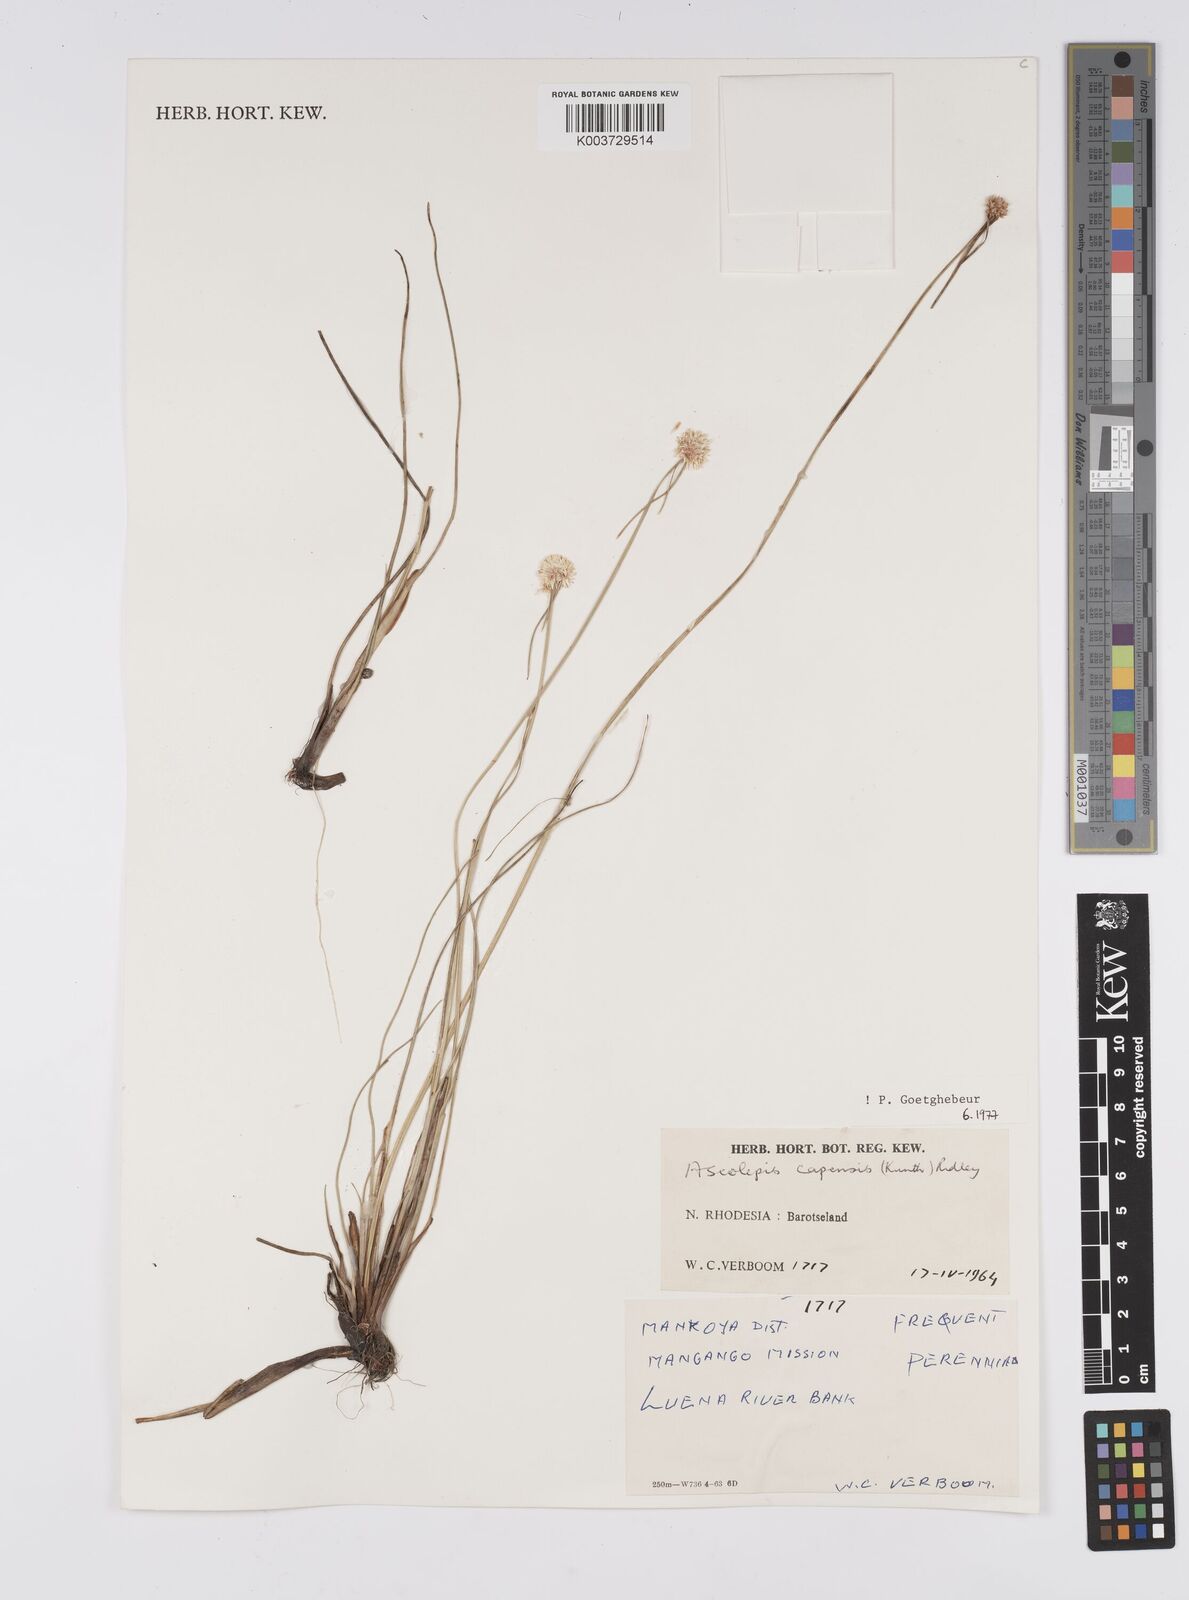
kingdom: Plantae
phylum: Tracheophyta
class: Liliopsida
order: Poales
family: Cyperaceae
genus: Cyperus
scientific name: Cyperus
